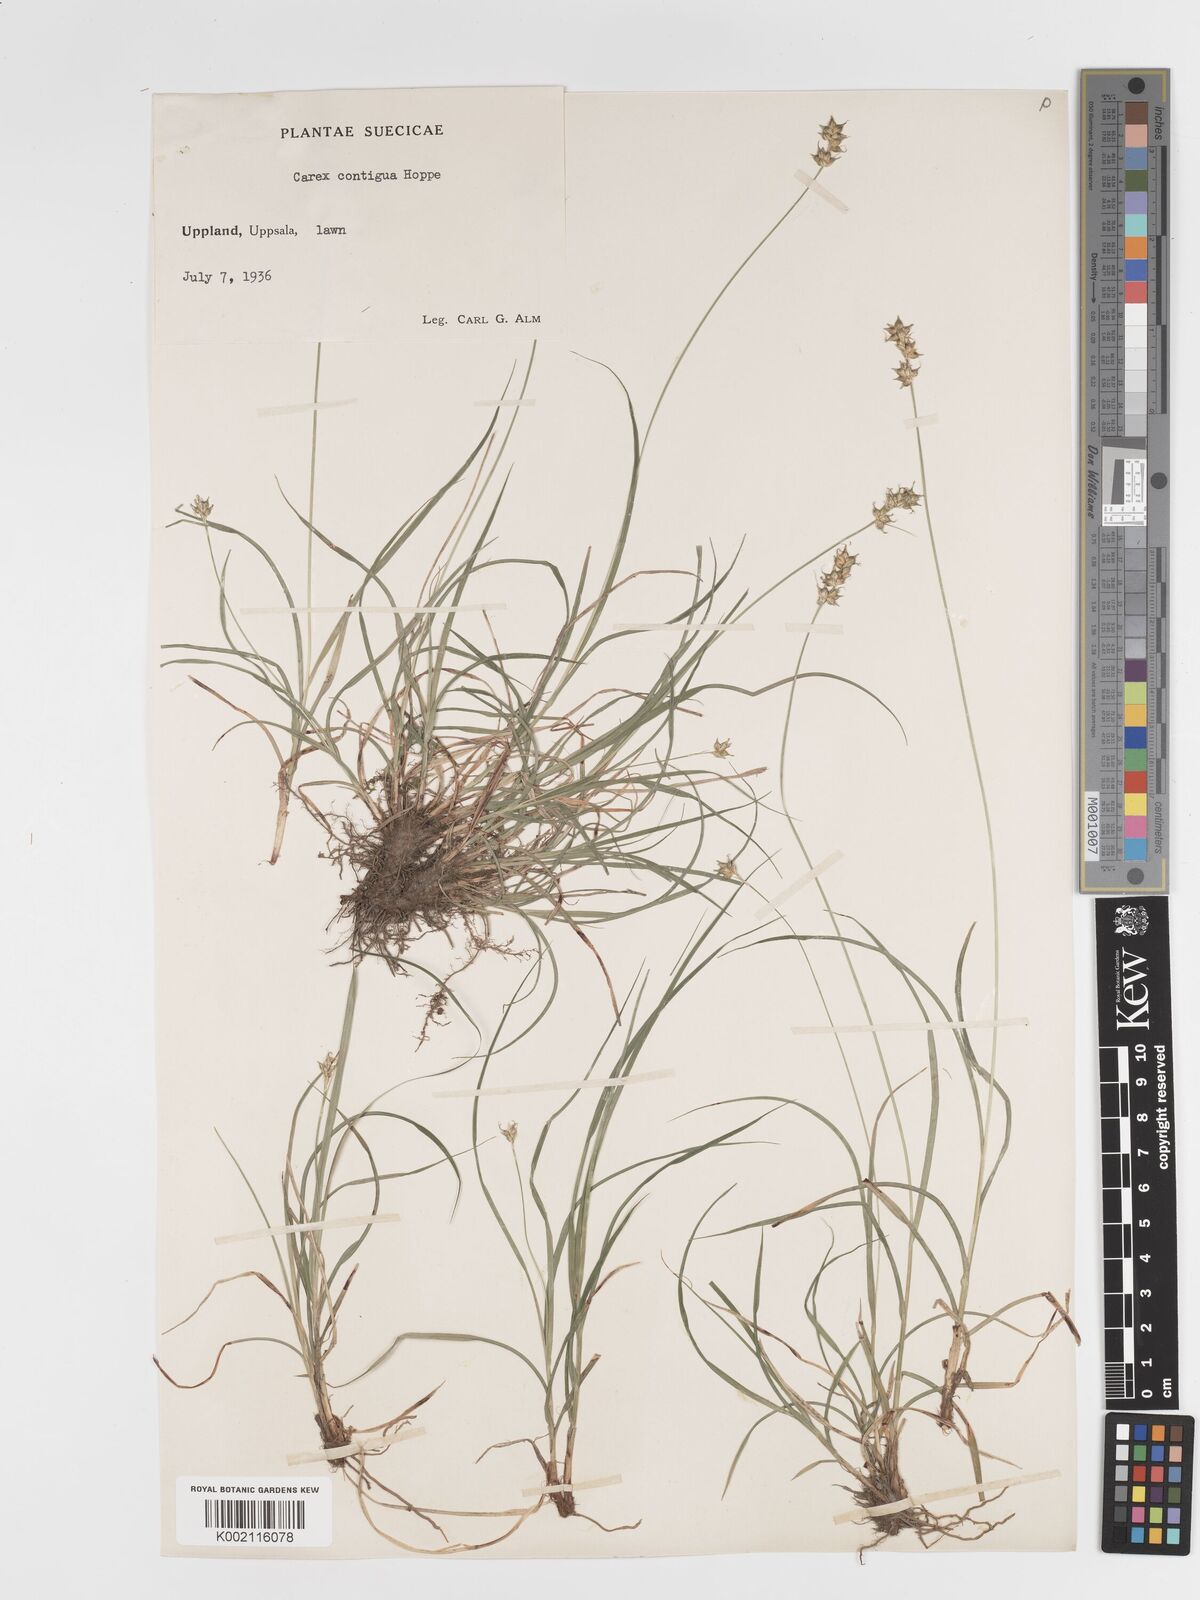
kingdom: Plantae
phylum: Tracheophyta
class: Liliopsida
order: Poales
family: Cyperaceae
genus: Carex
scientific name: Carex spicata
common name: Spiked sedge
